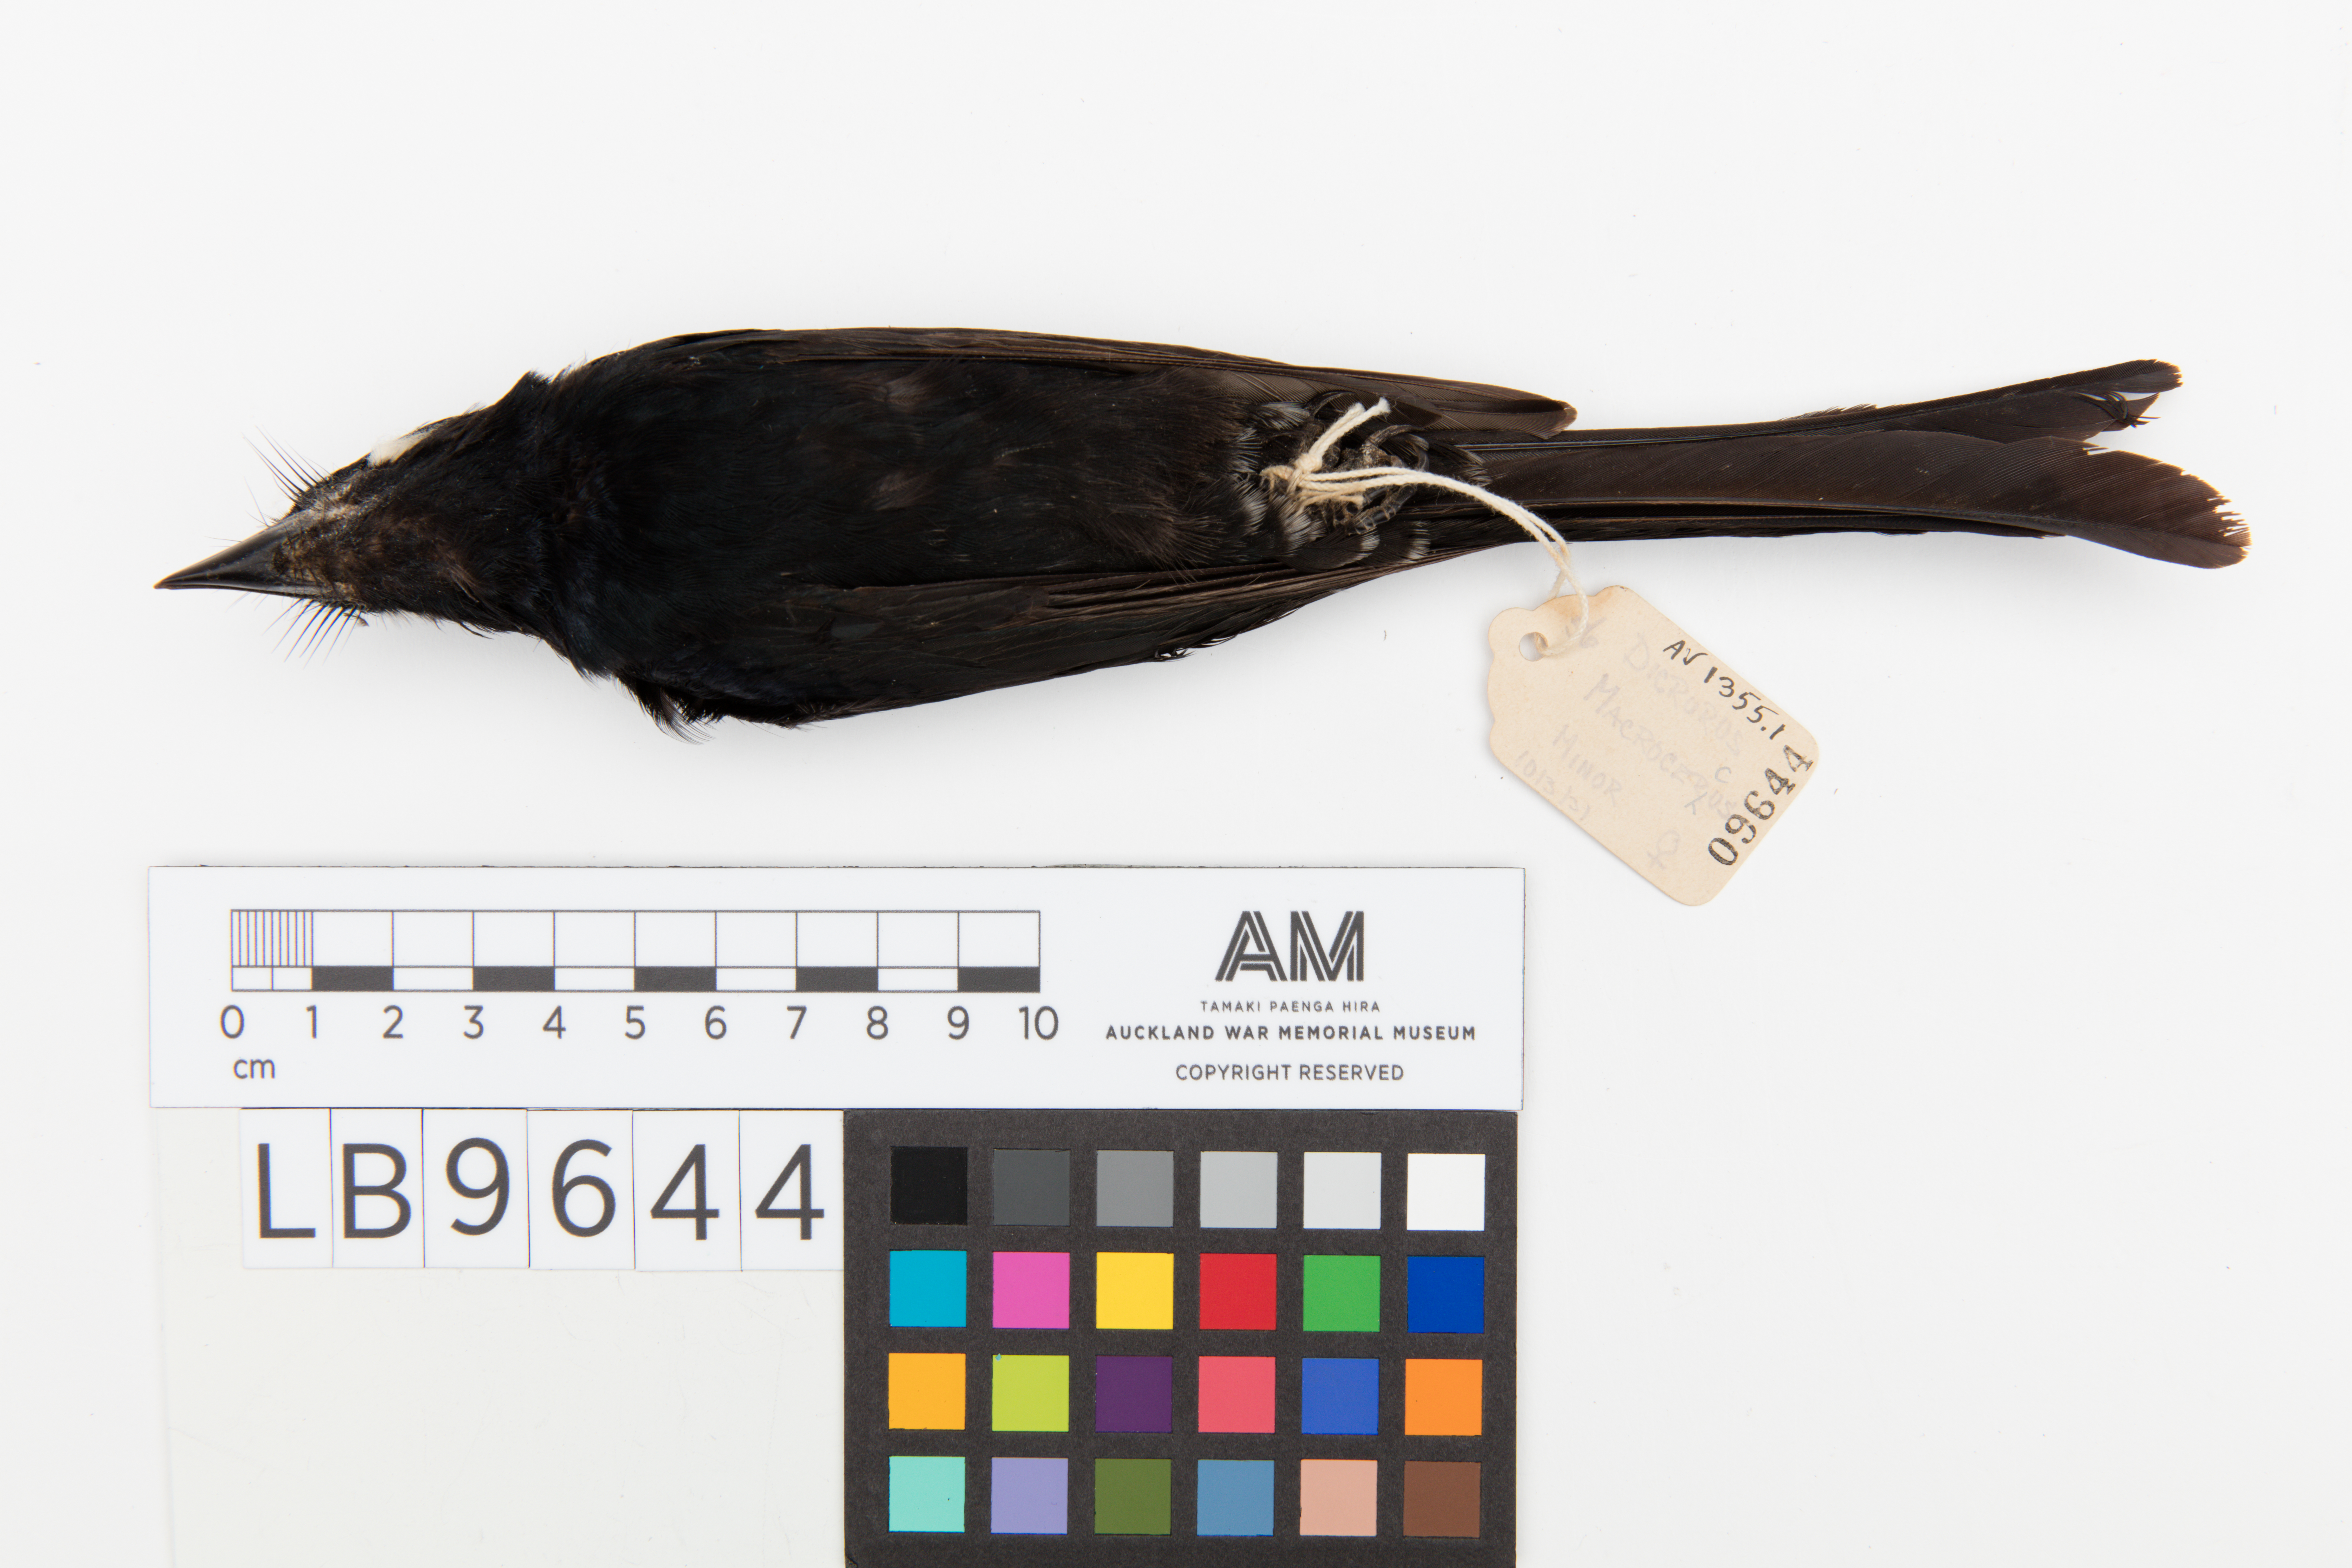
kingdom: Animalia
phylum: Chordata
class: Aves
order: Passeriformes
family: Dicruridae
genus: Dicrurus
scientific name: Dicrurus macrocercus
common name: Black drongo
